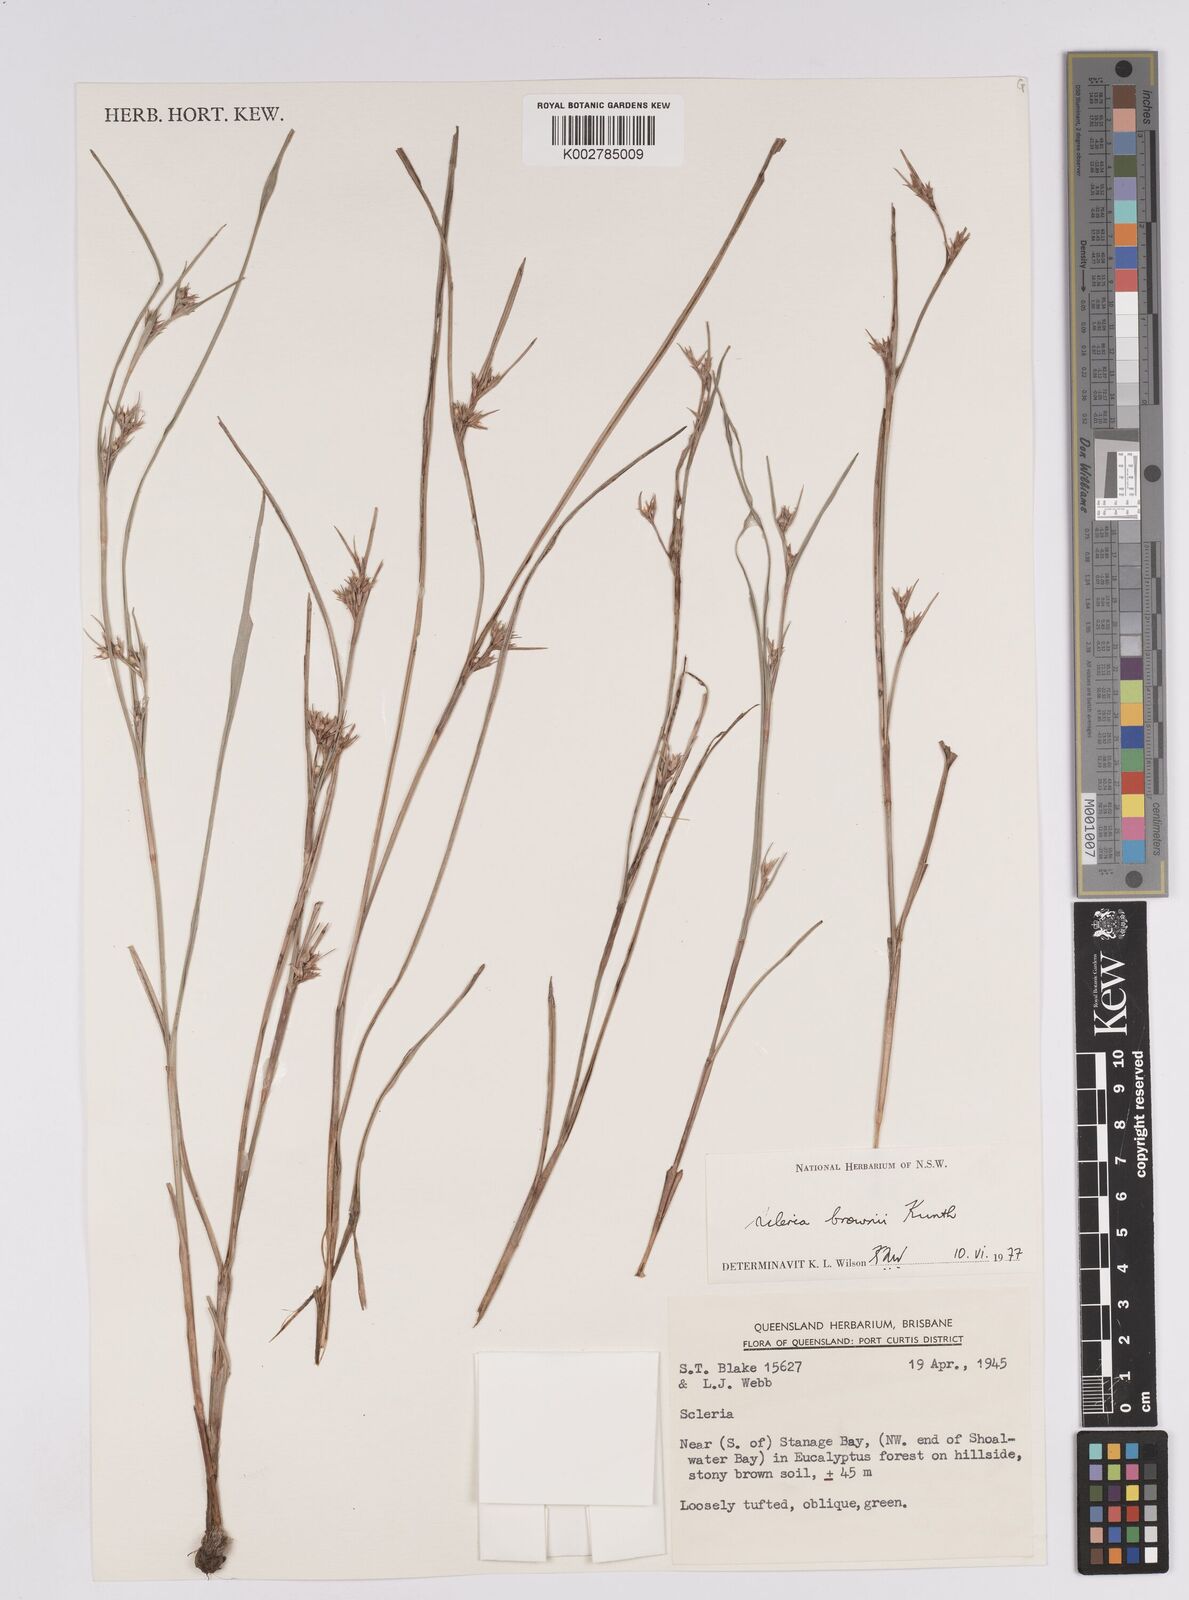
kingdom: Plantae
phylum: Tracheophyta
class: Liliopsida
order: Poales
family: Cyperaceae
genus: Scleria
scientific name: Scleria brownii
